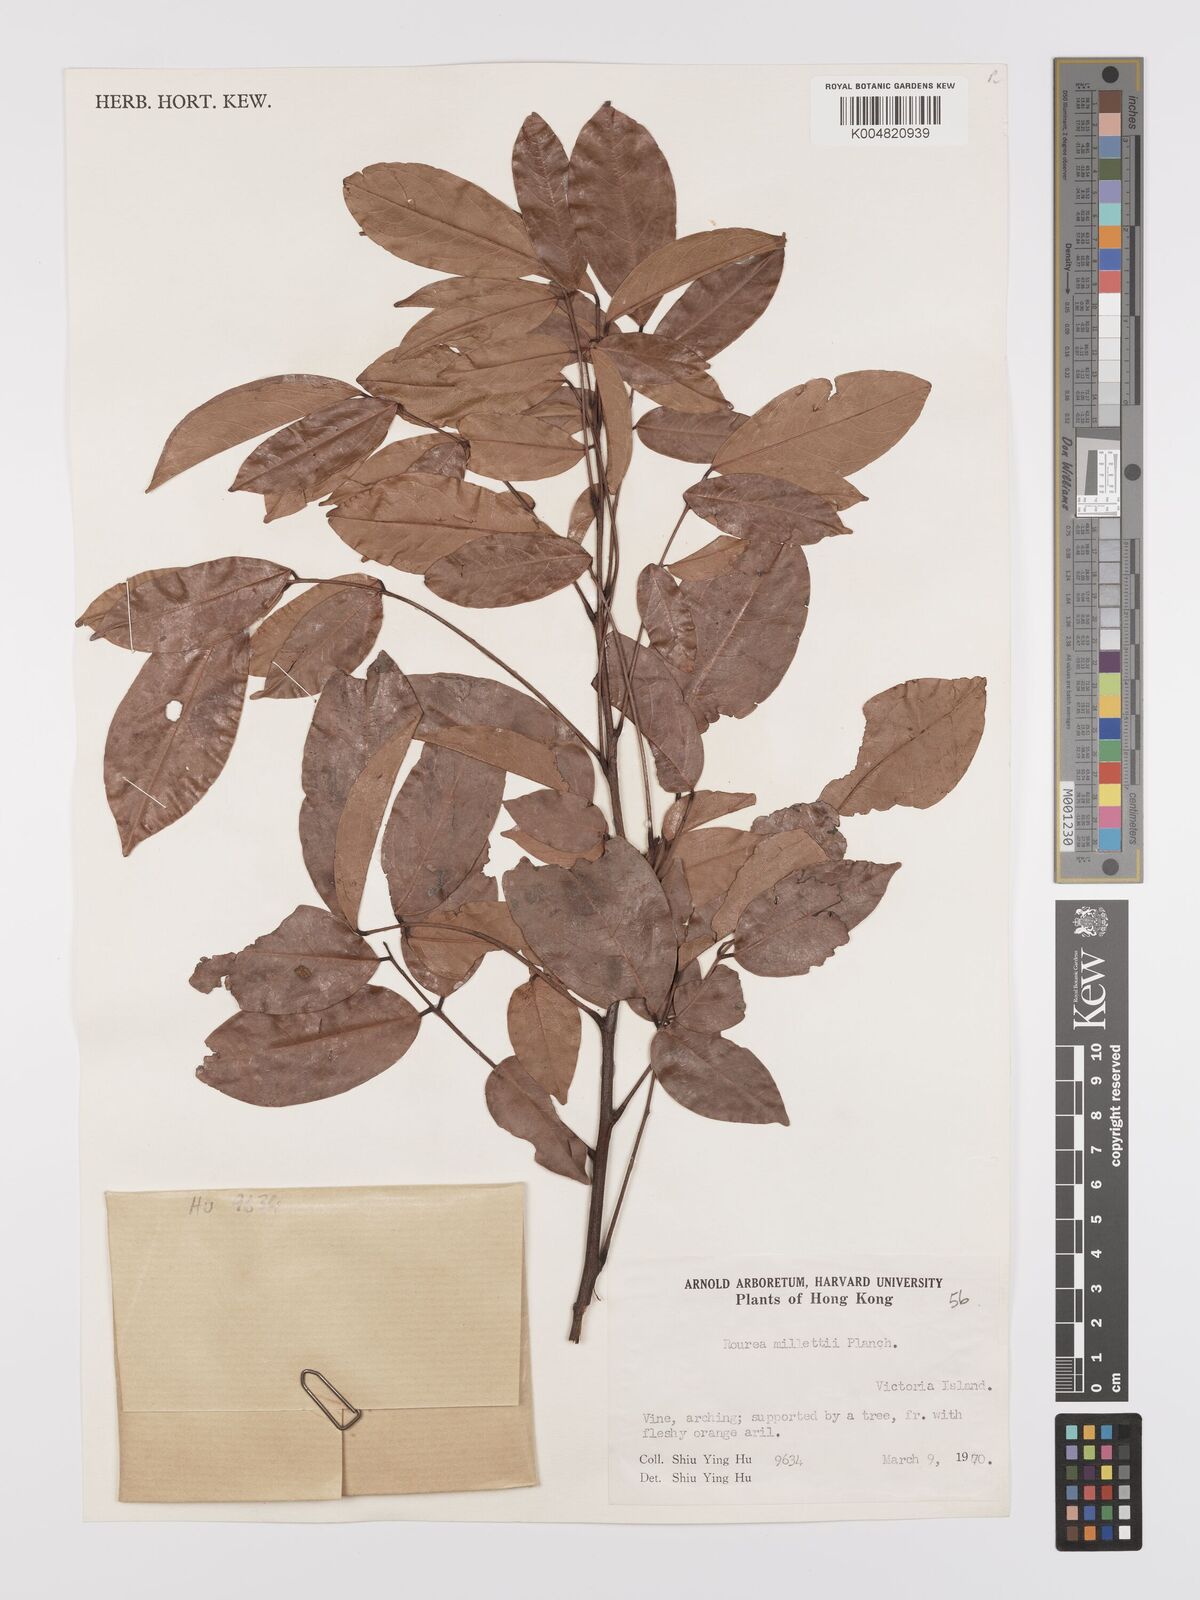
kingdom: Plantae
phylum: Tracheophyta
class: Magnoliopsida
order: Oxalidales
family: Connaraceae
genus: Rourea
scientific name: Rourea
